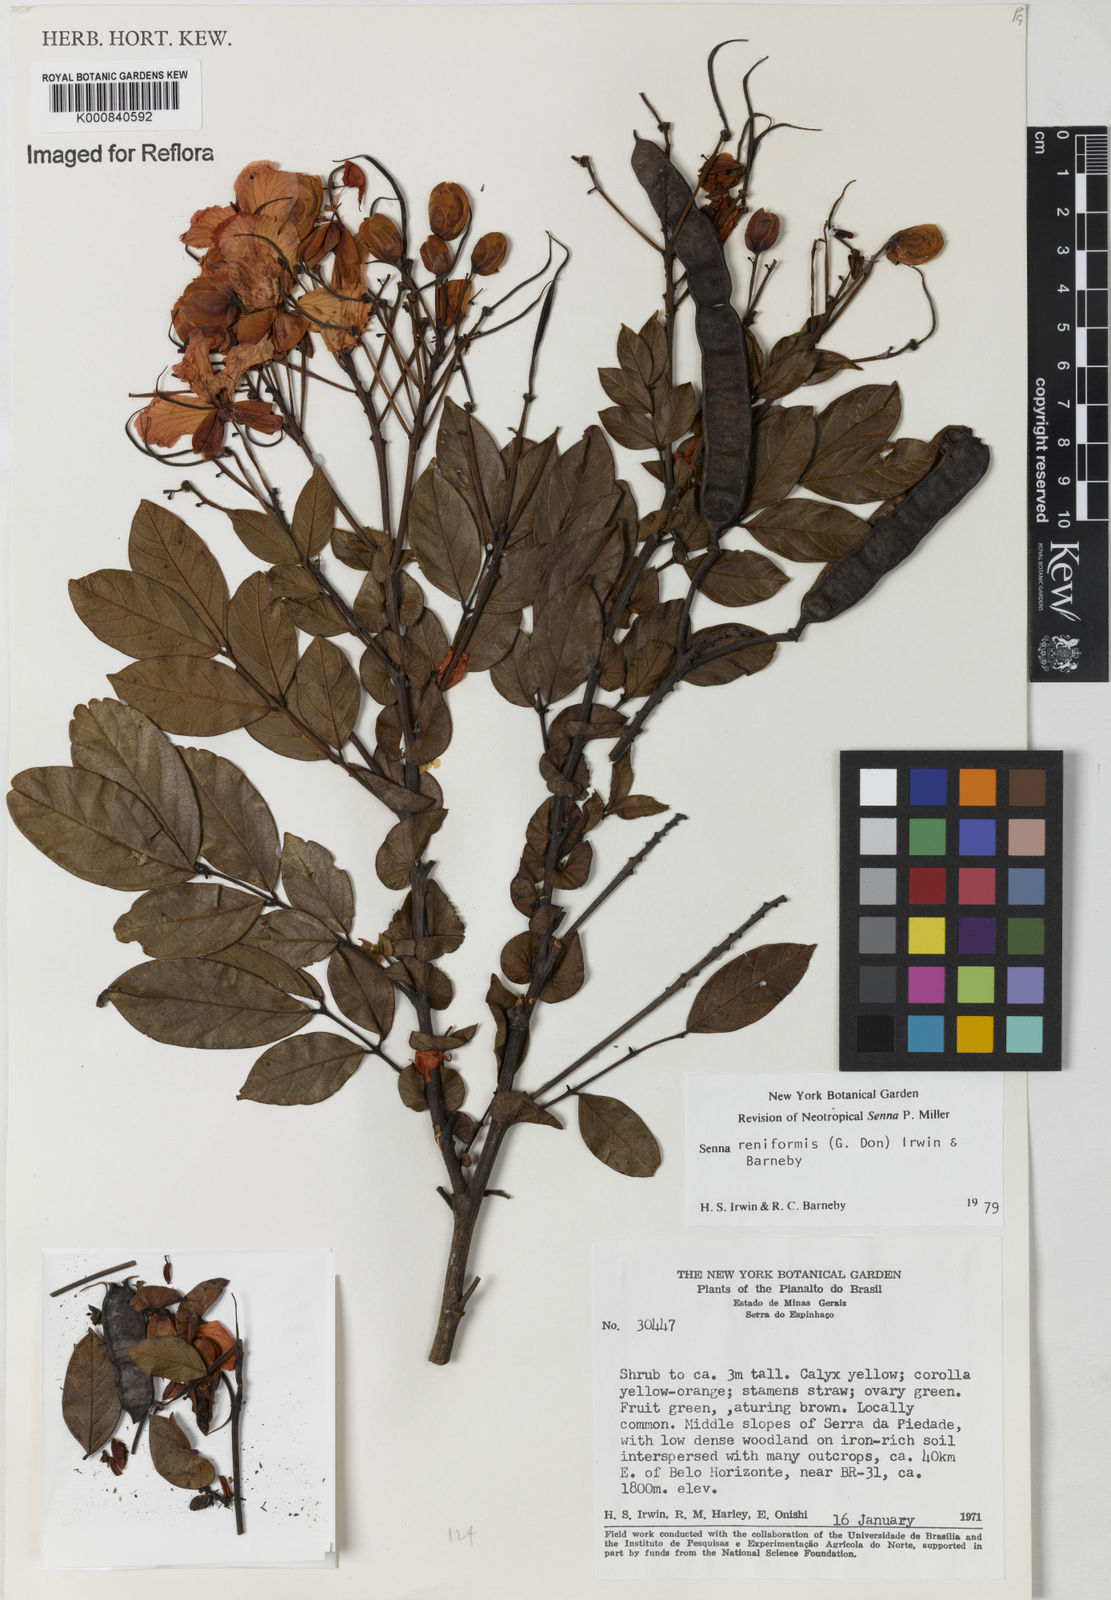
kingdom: Plantae
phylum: Tracheophyta
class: Magnoliopsida
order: Fabales
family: Fabaceae
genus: Senna
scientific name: Senna reniformis
